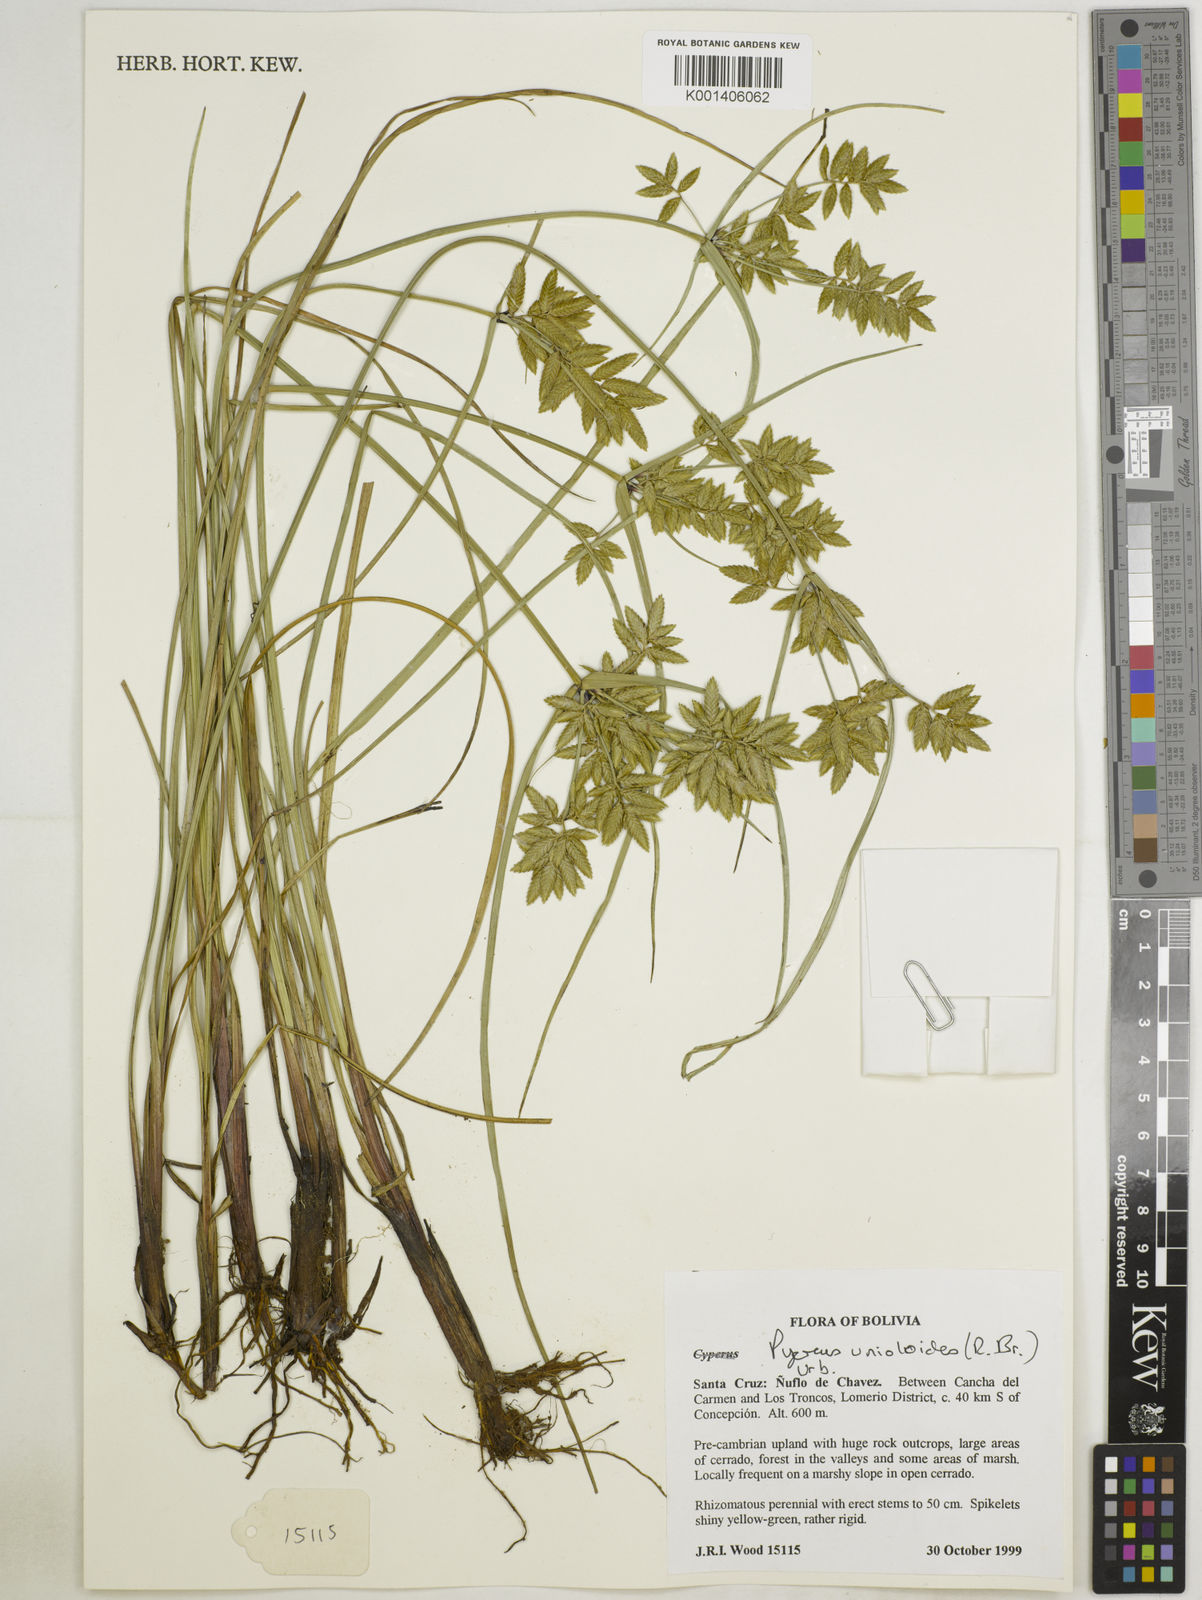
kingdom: Plantae
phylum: Tracheophyta
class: Liliopsida
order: Poales
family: Cyperaceae
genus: Cyperus
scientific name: Cyperus unioloides
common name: Uniola flatsedge
